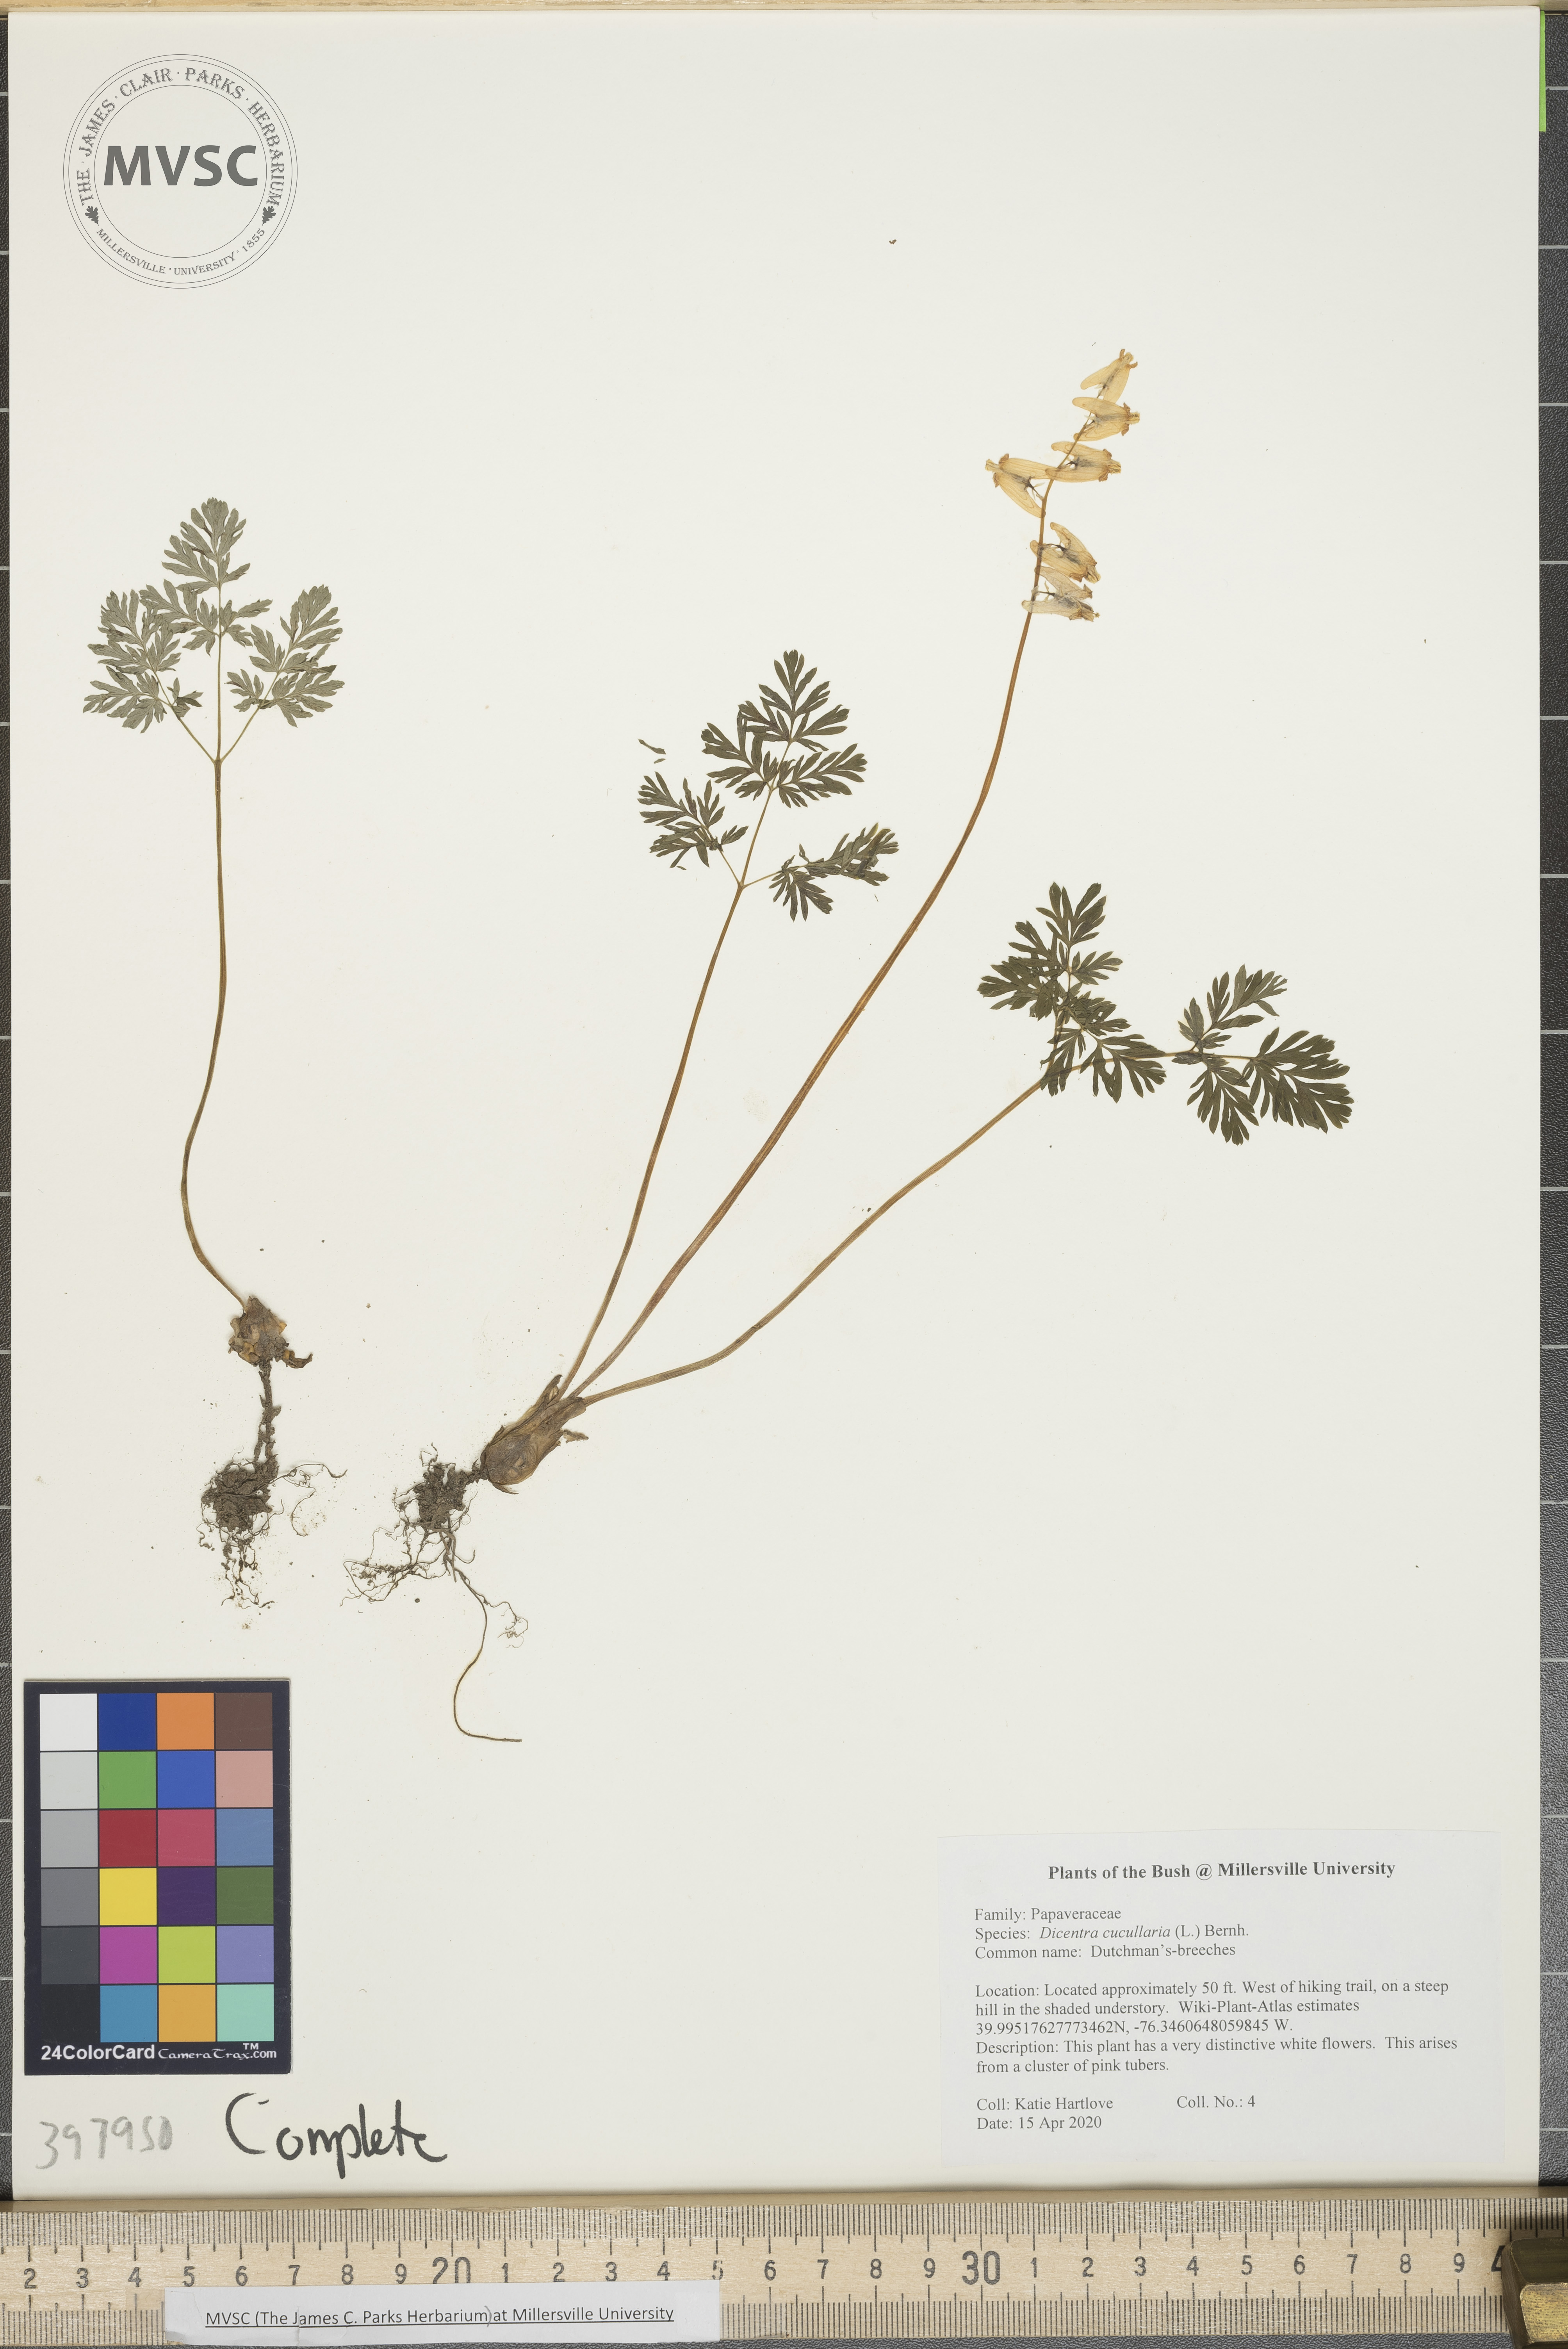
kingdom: Plantae
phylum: Tracheophyta
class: Magnoliopsida
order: Ranunculales
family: Papaveraceae
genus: Dicentra
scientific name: Dicentra cucullaria
